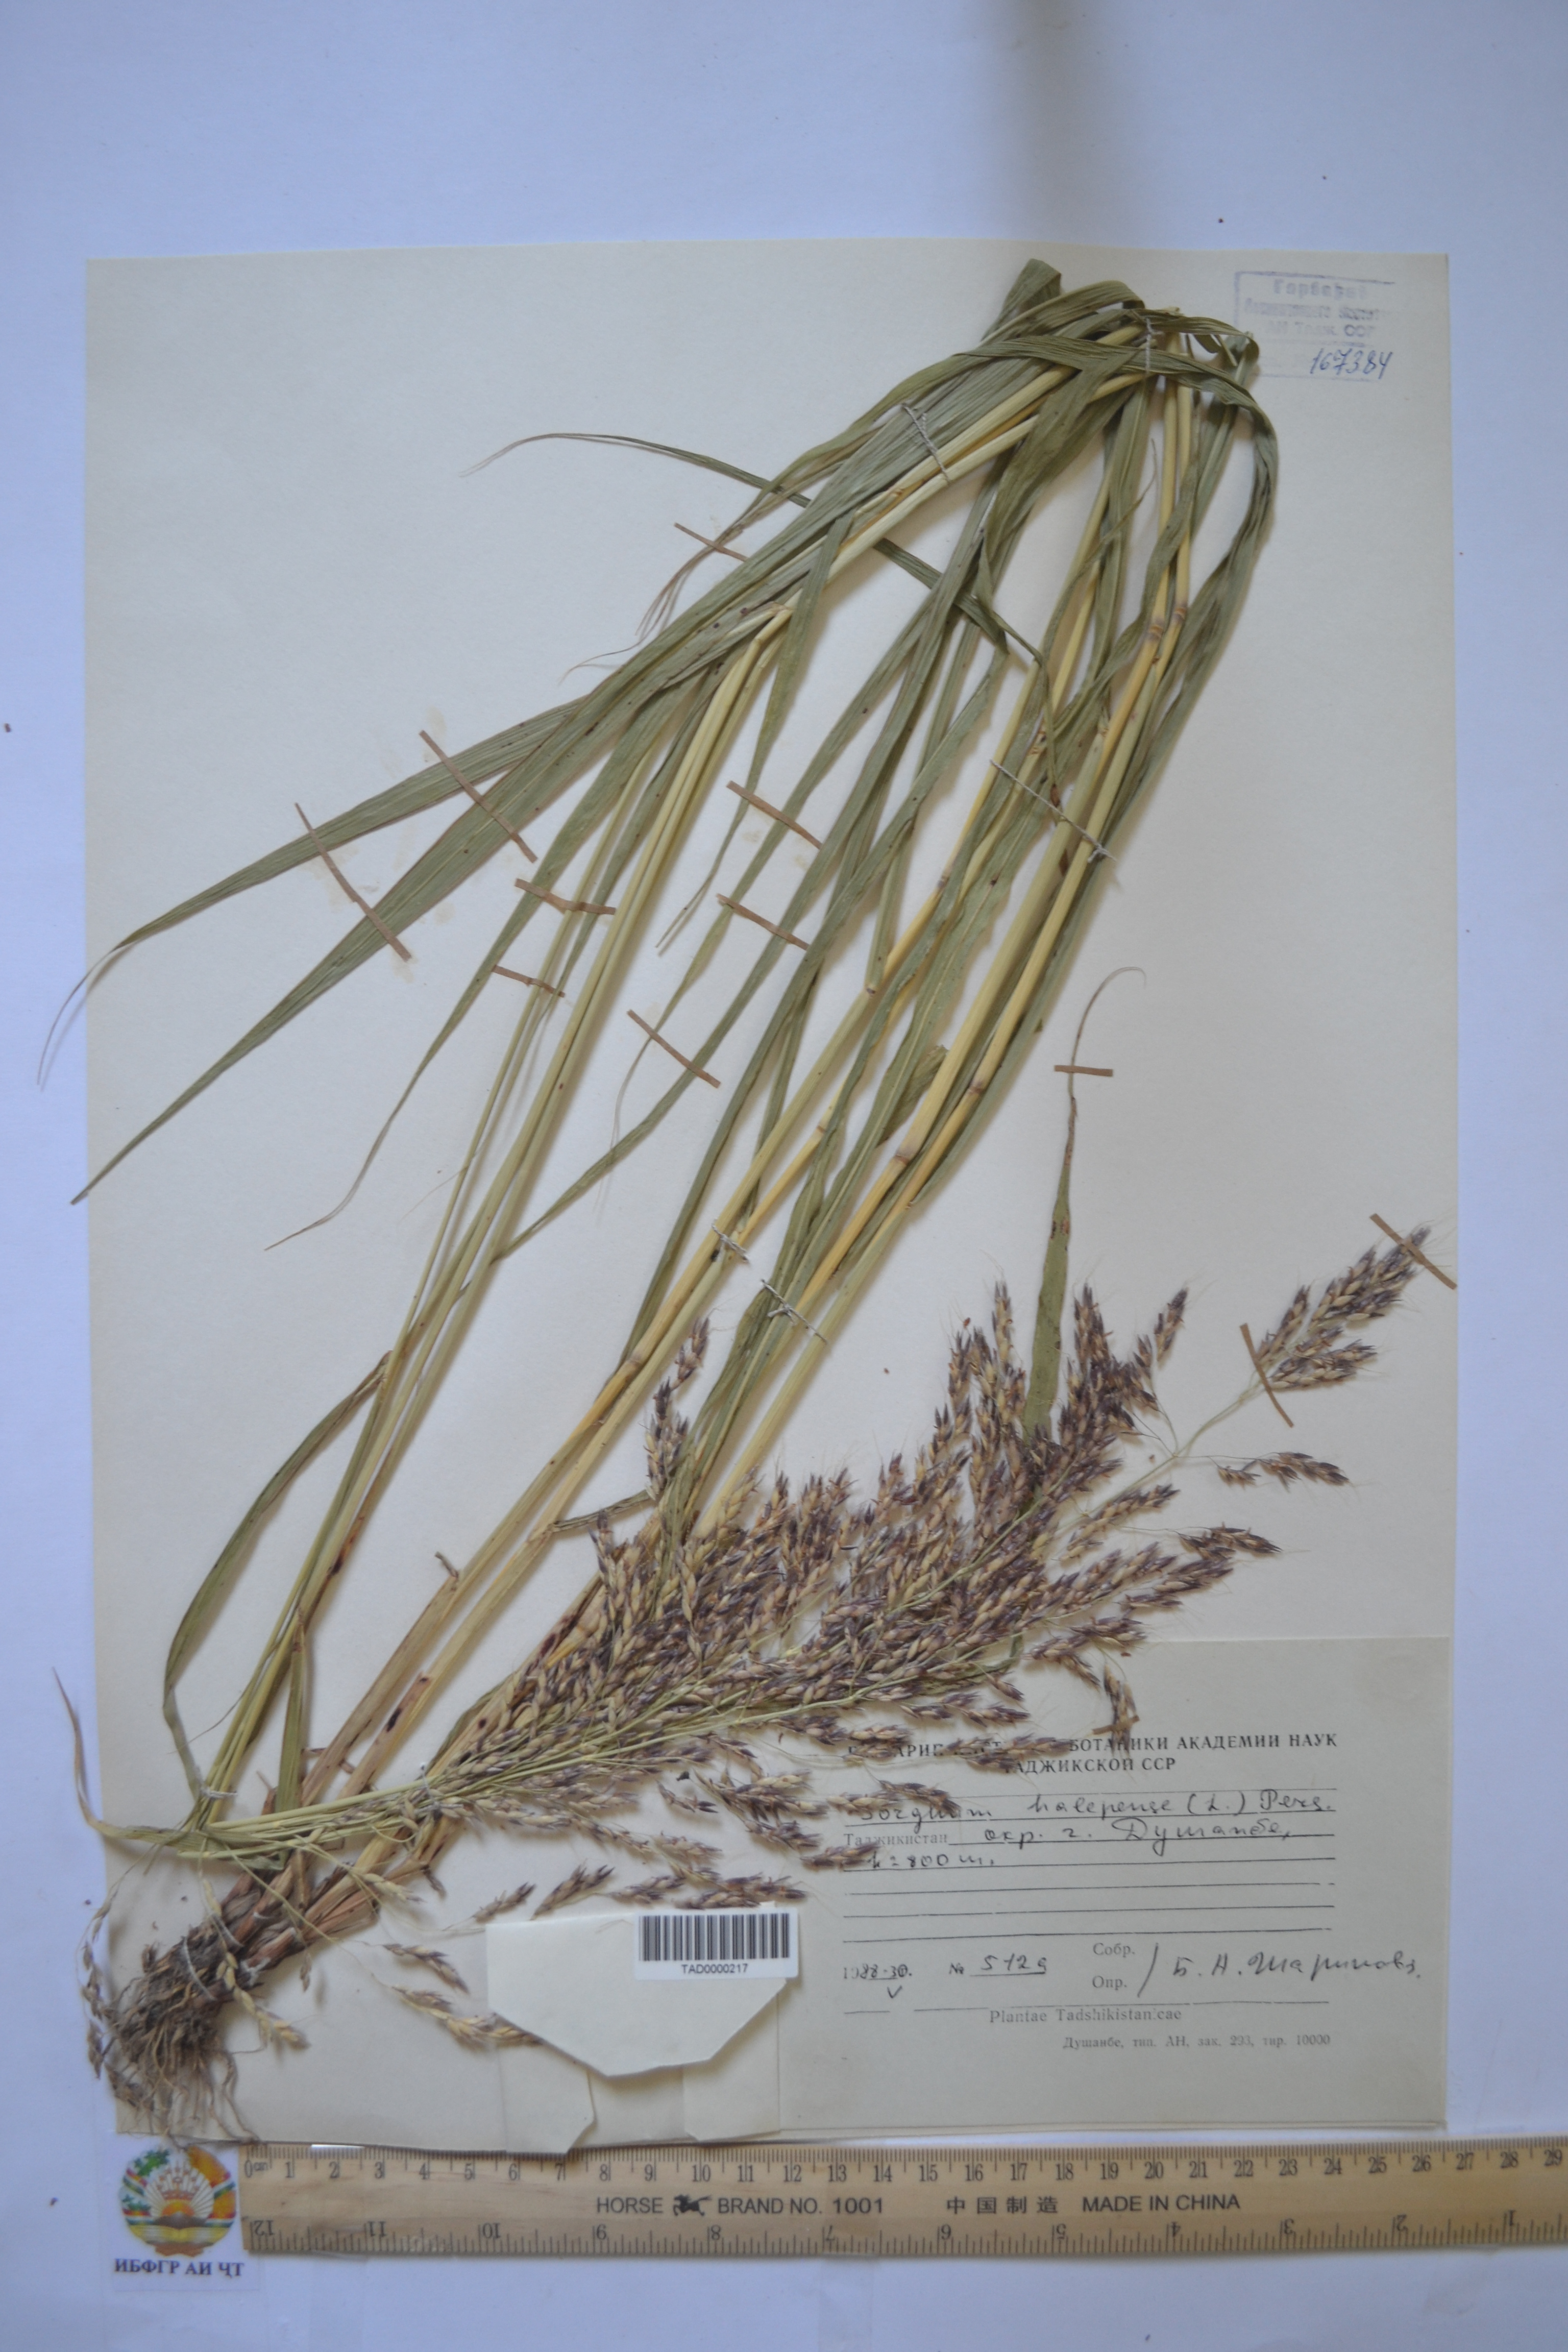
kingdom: Plantae
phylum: Tracheophyta
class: Liliopsida
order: Poales
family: Poaceae
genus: Sorghum
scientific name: Sorghum halepense
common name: Johnson-grass
